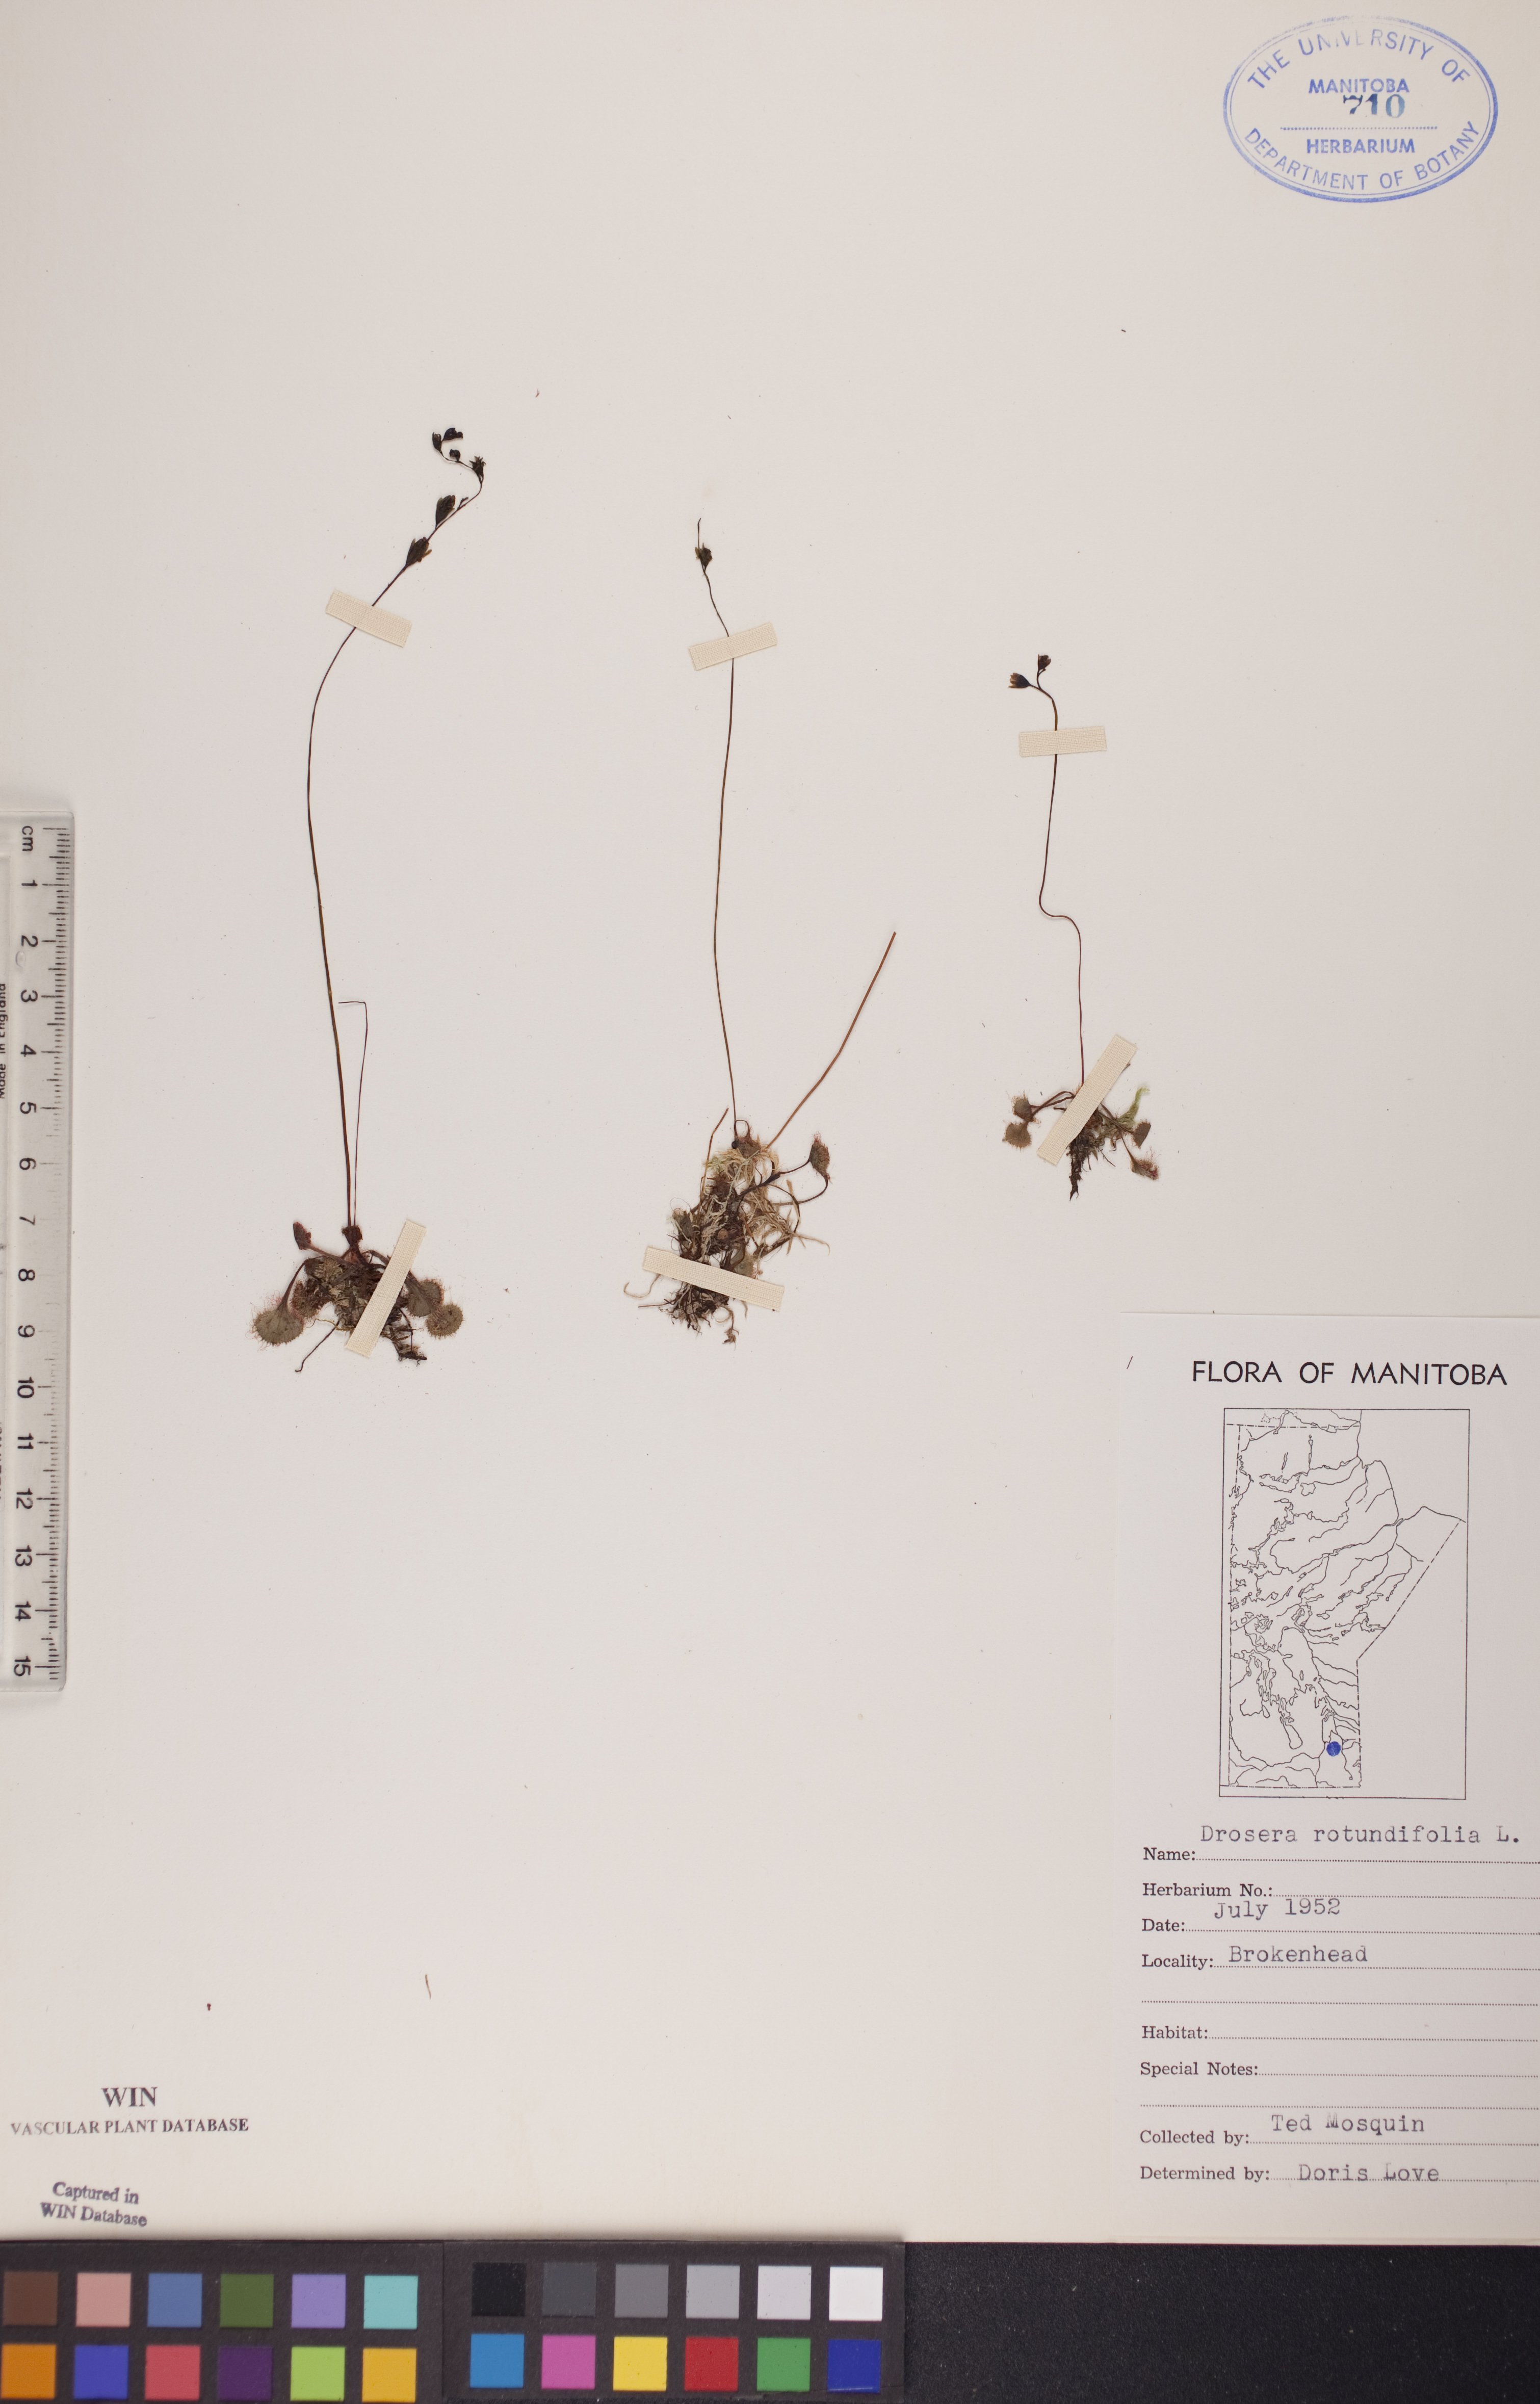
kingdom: Plantae
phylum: Tracheophyta
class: Magnoliopsida
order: Caryophyllales
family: Droseraceae
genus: Drosera
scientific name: Drosera rotundifolia
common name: Round-leaved sundew
